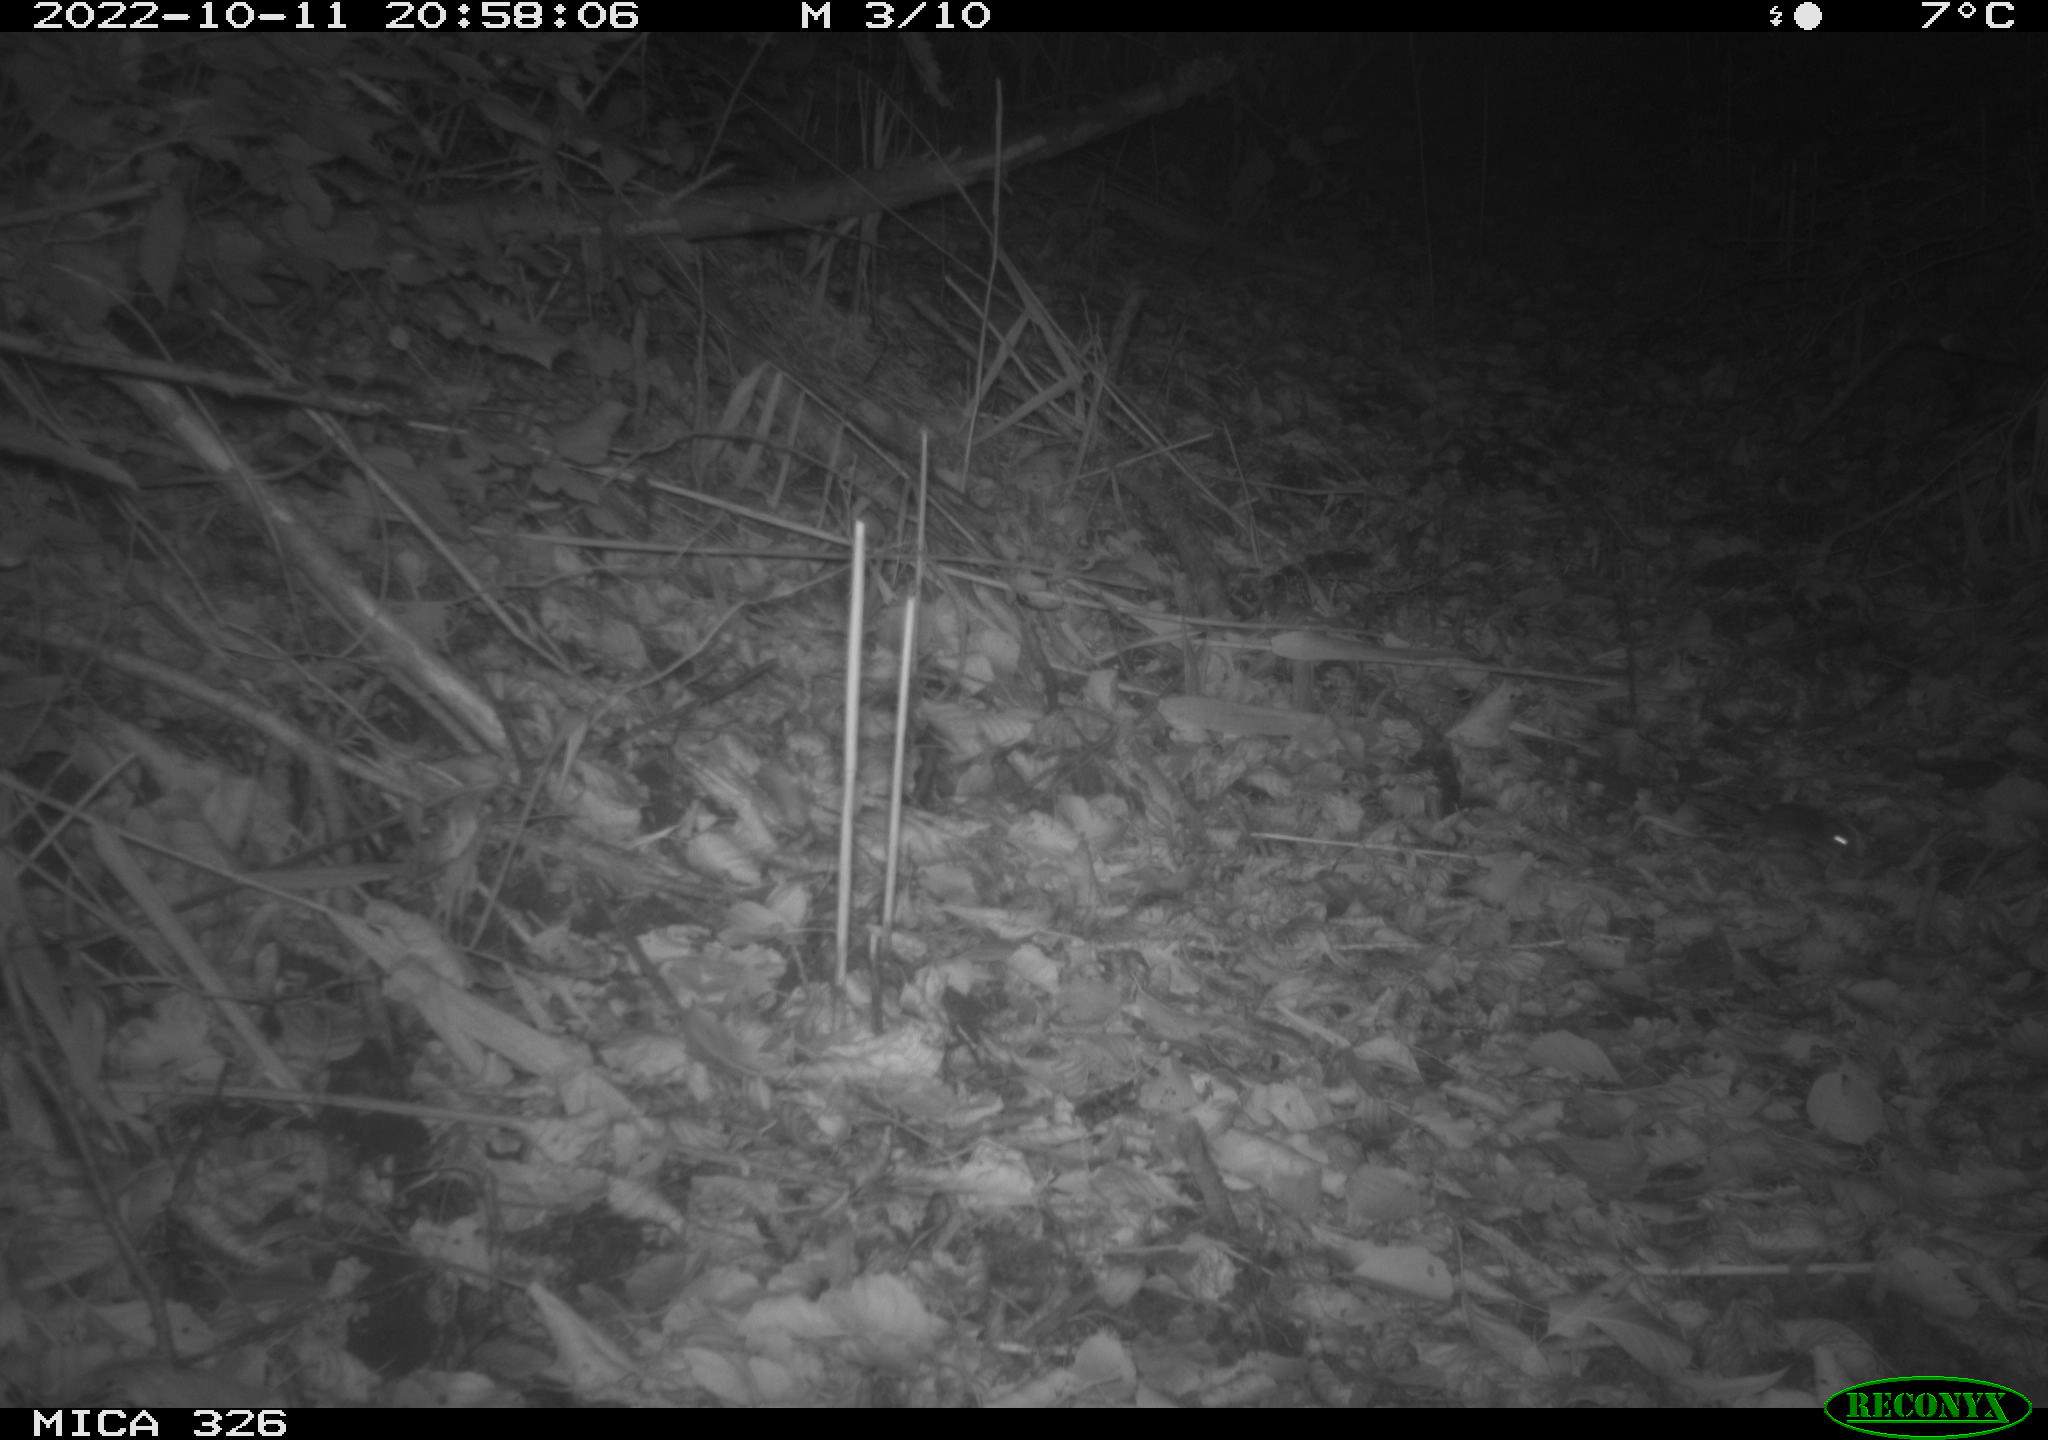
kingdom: Animalia
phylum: Chordata
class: Mammalia
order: Rodentia
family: Muridae
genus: Apodemus
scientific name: Apodemus sylvaticus
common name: Wood mouse
